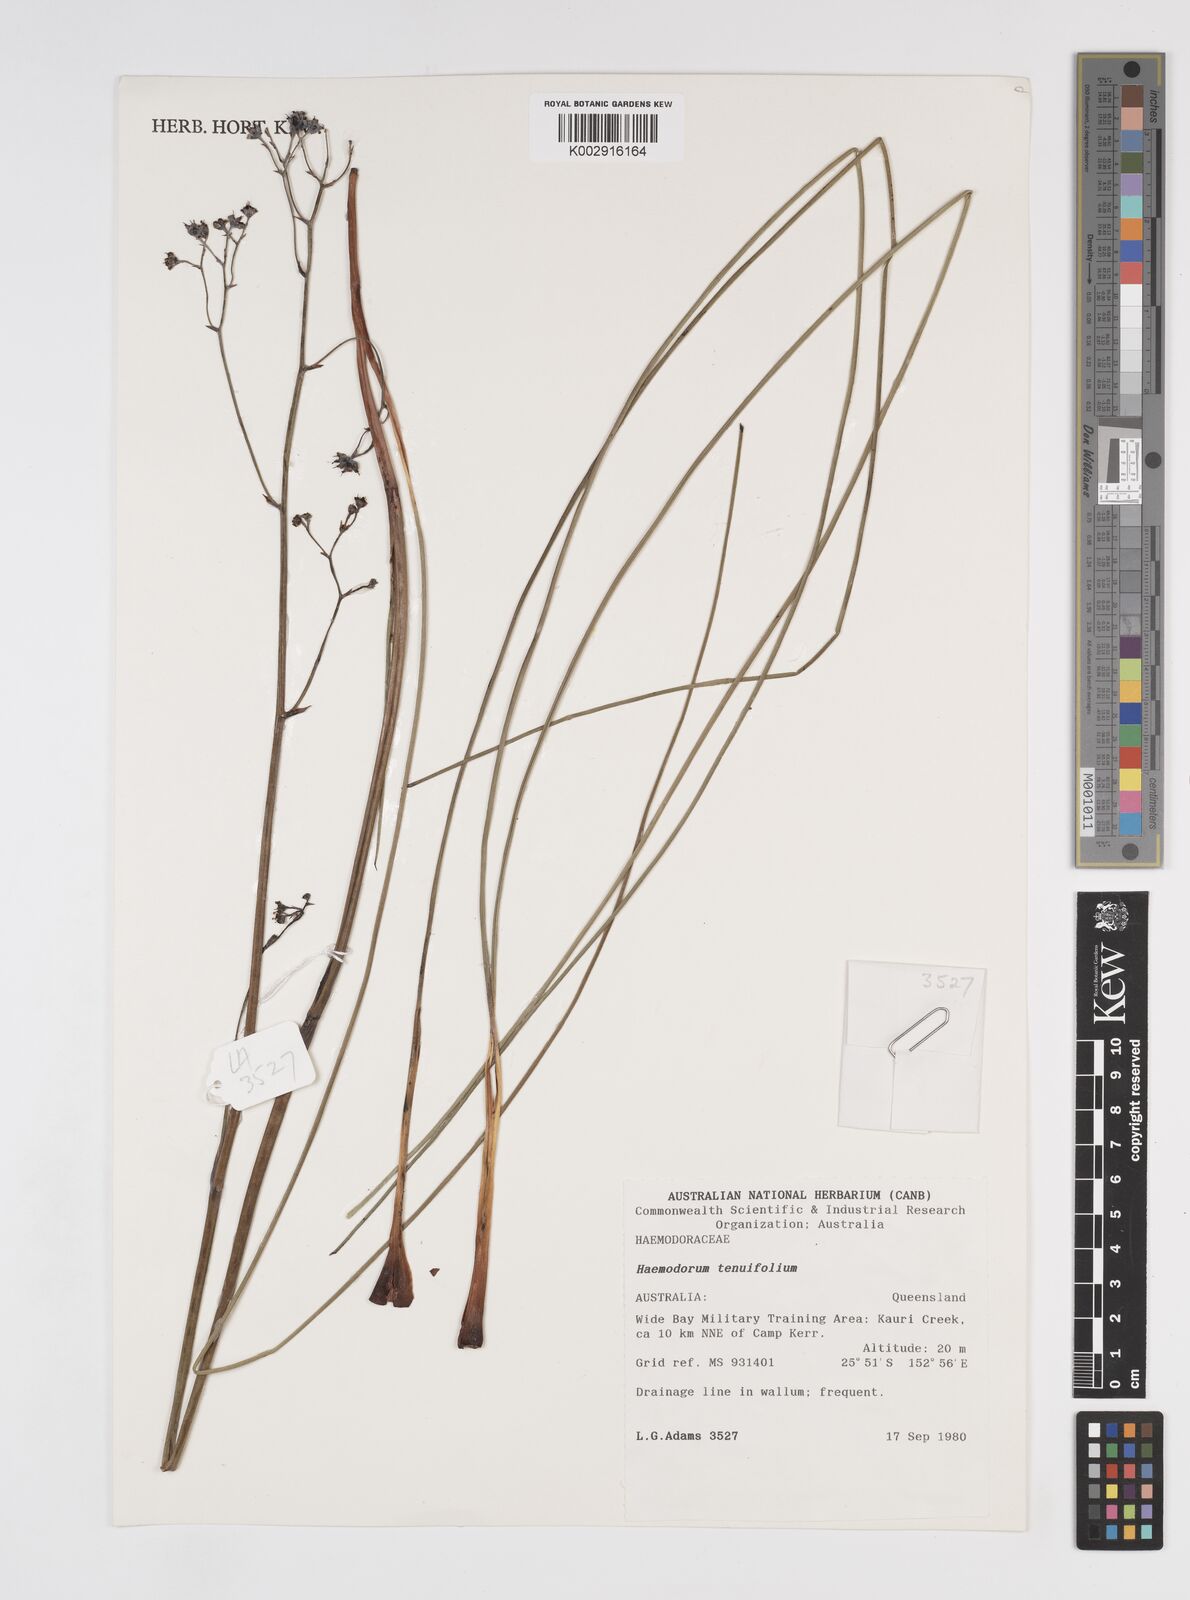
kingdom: Plantae
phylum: Tracheophyta
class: Liliopsida
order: Commelinales
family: Haemodoraceae
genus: Haemodorum
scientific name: Haemodorum tenuifolium
